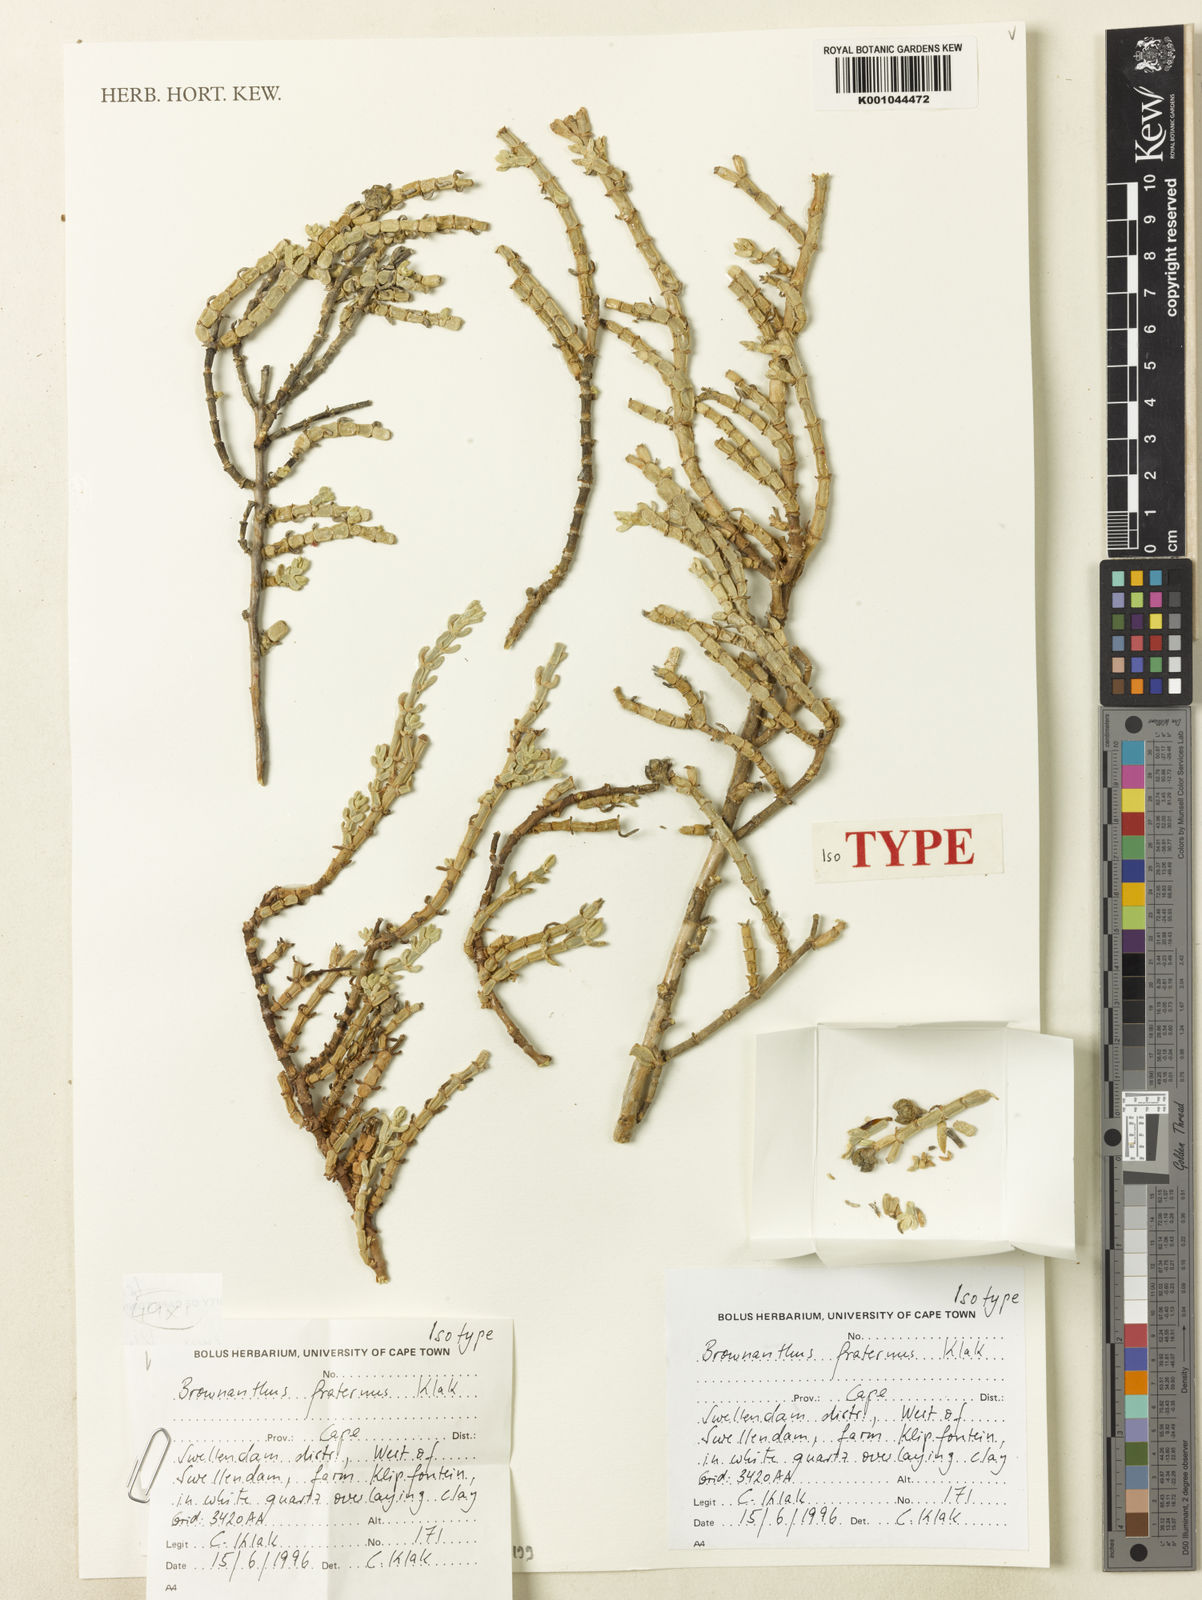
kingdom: Plantae
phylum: Tracheophyta
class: Magnoliopsida
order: Caryophyllales
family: Aizoaceae
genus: Mesembryanthemum
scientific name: Mesembryanthemum napierense
